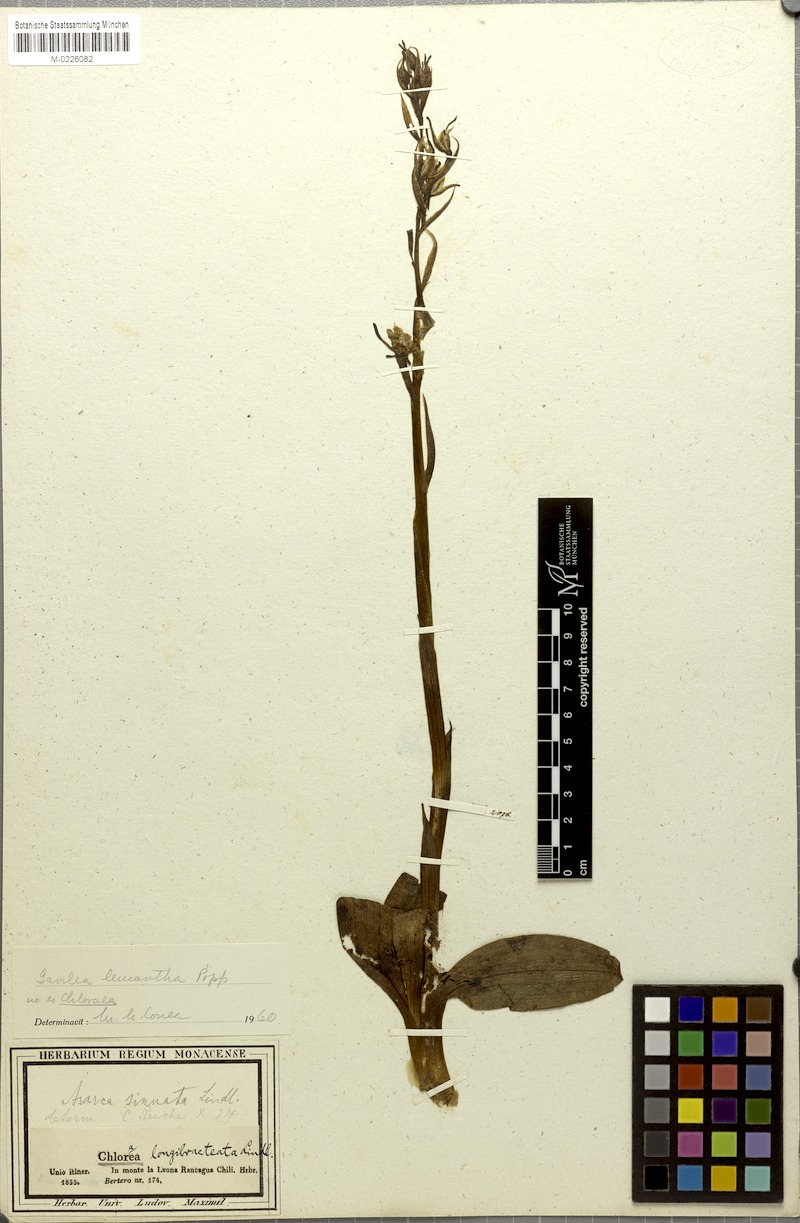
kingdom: Plantae
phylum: Tracheophyta
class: Liliopsida
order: Asparagales
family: Orchidaceae
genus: Gavilea
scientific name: Gavilea venosa
